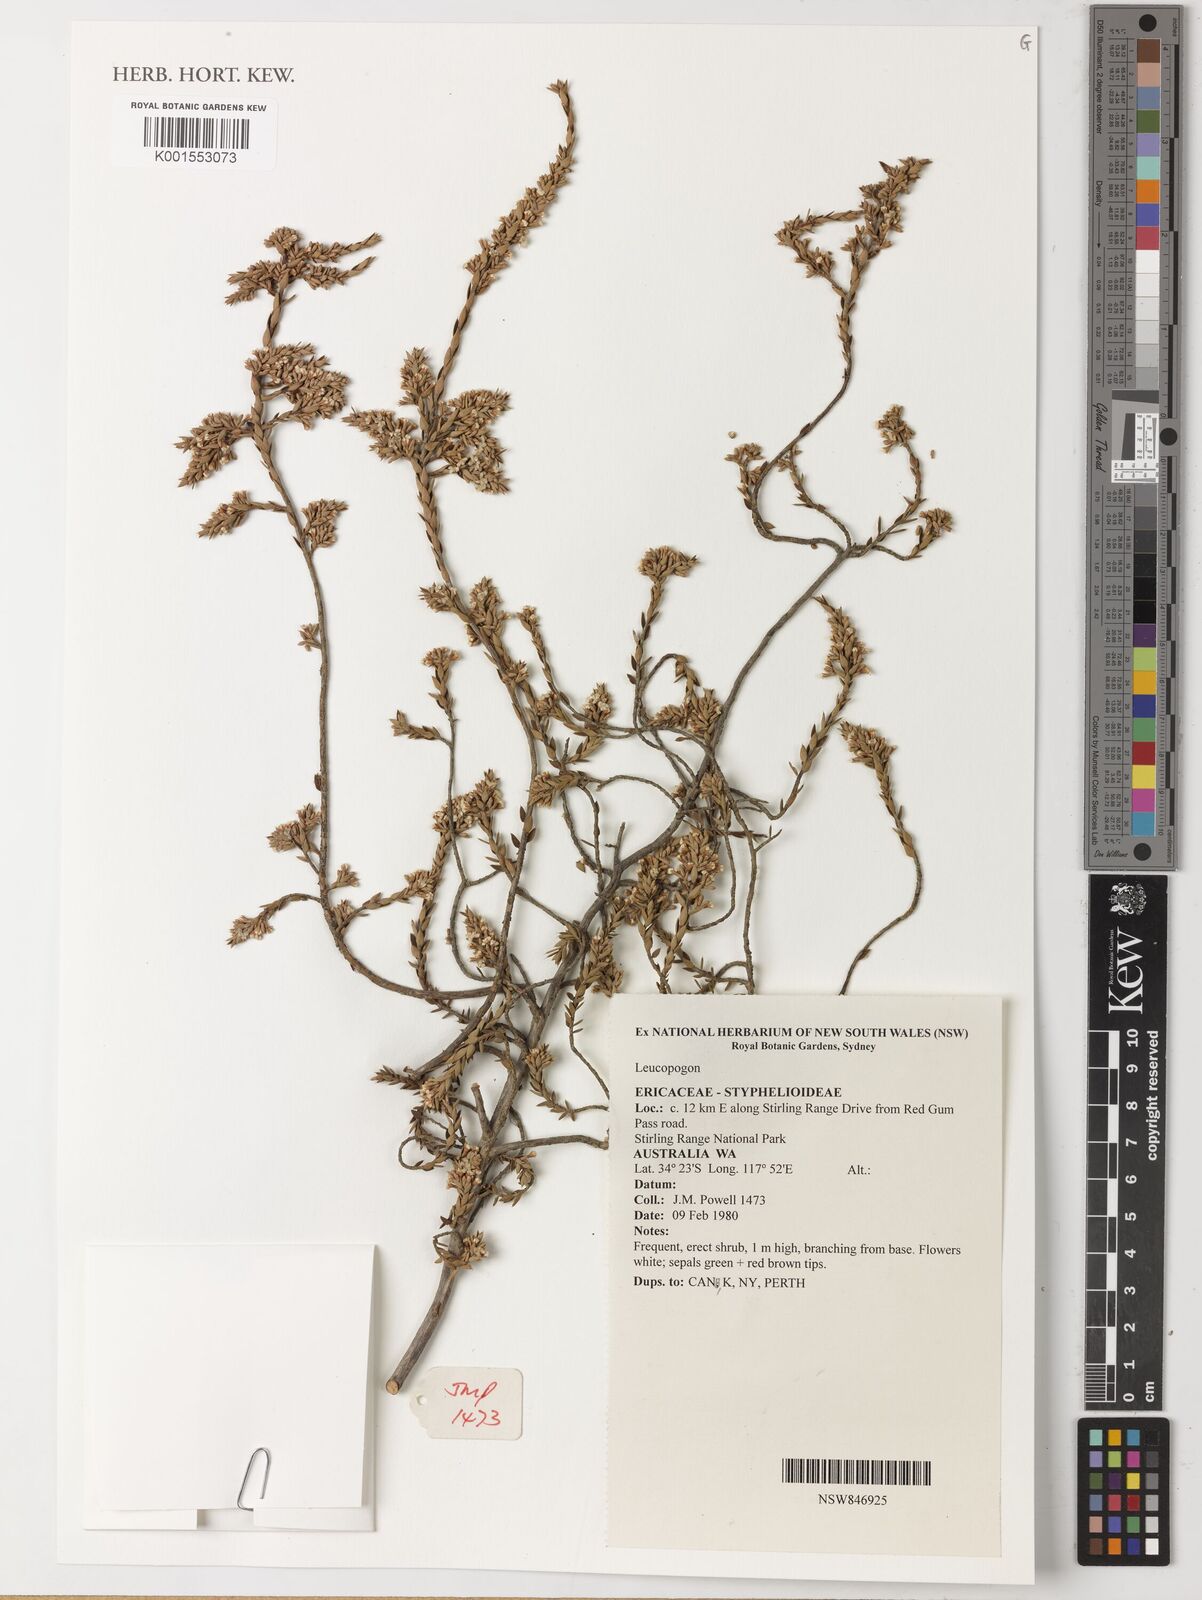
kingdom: Plantae
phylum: Tracheophyta
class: Magnoliopsida
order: Ericales
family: Ericaceae
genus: Leucopogon
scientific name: Leucopogon
